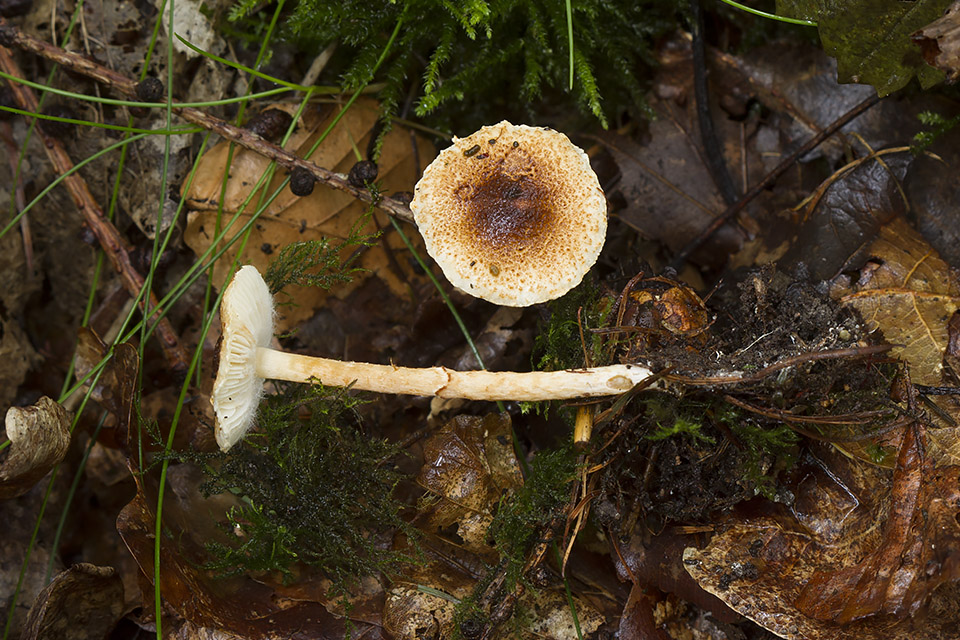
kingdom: Fungi
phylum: Basidiomycota
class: Agaricomycetes
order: Agaricales
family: Agaricaceae
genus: Lepiota
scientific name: Lepiota castanea
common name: kastaniebrun parasolhat
